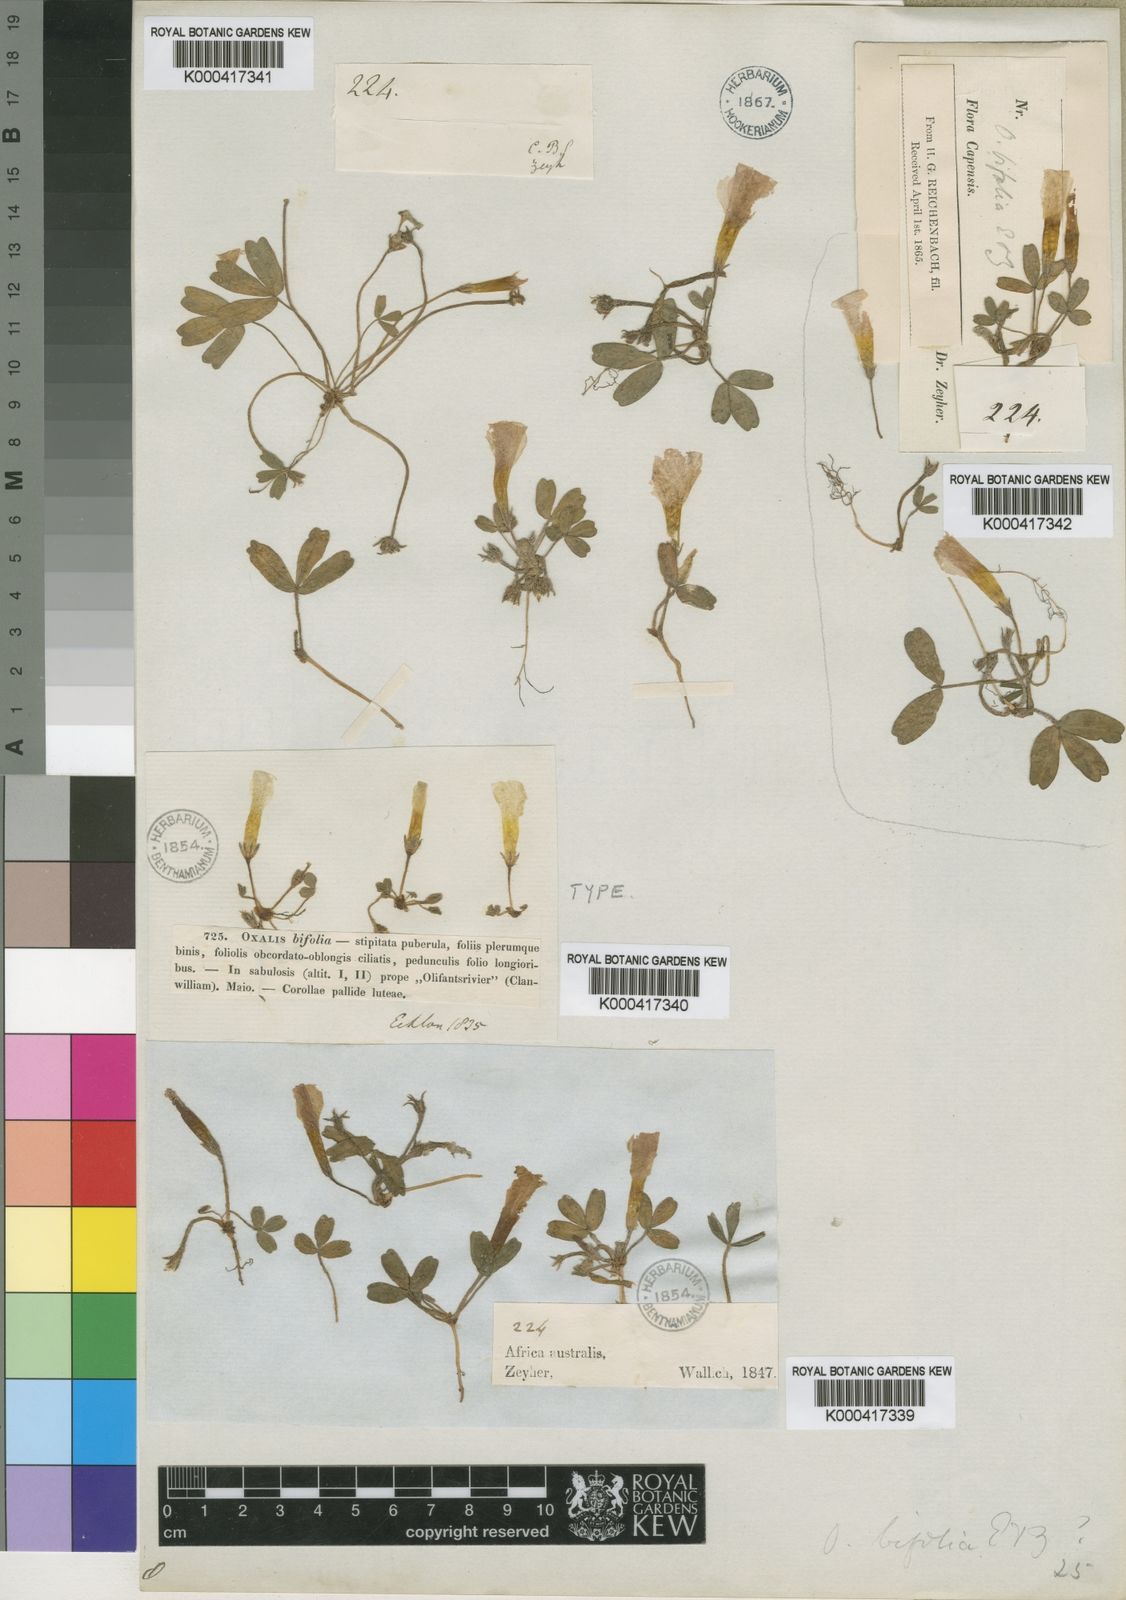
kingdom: Plantae
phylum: Tracheophyta
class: Magnoliopsida
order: Oxalidales
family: Oxalidaceae
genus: Oxalis
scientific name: Oxalis eckloniana
